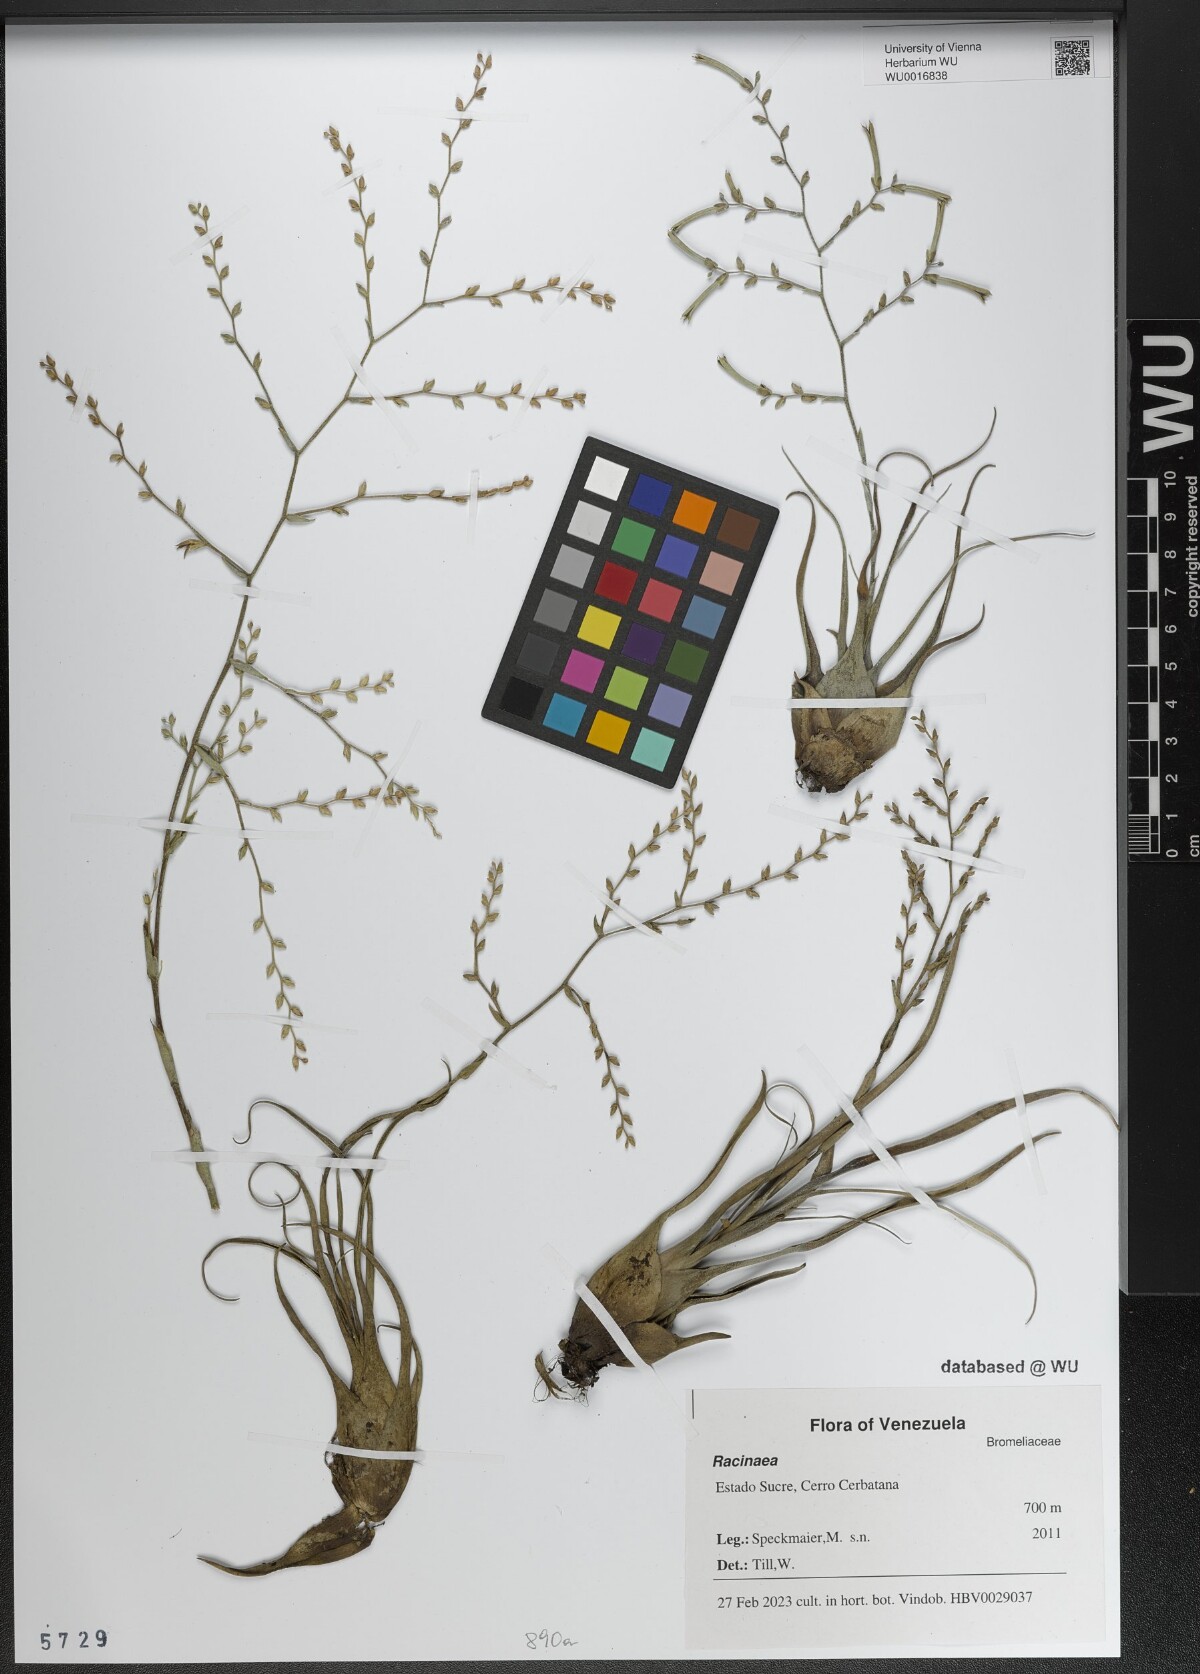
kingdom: Plantae
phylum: Tracheophyta
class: Liliopsida
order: Poales
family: Bromeliaceae
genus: Racinaea
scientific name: Racinaea
